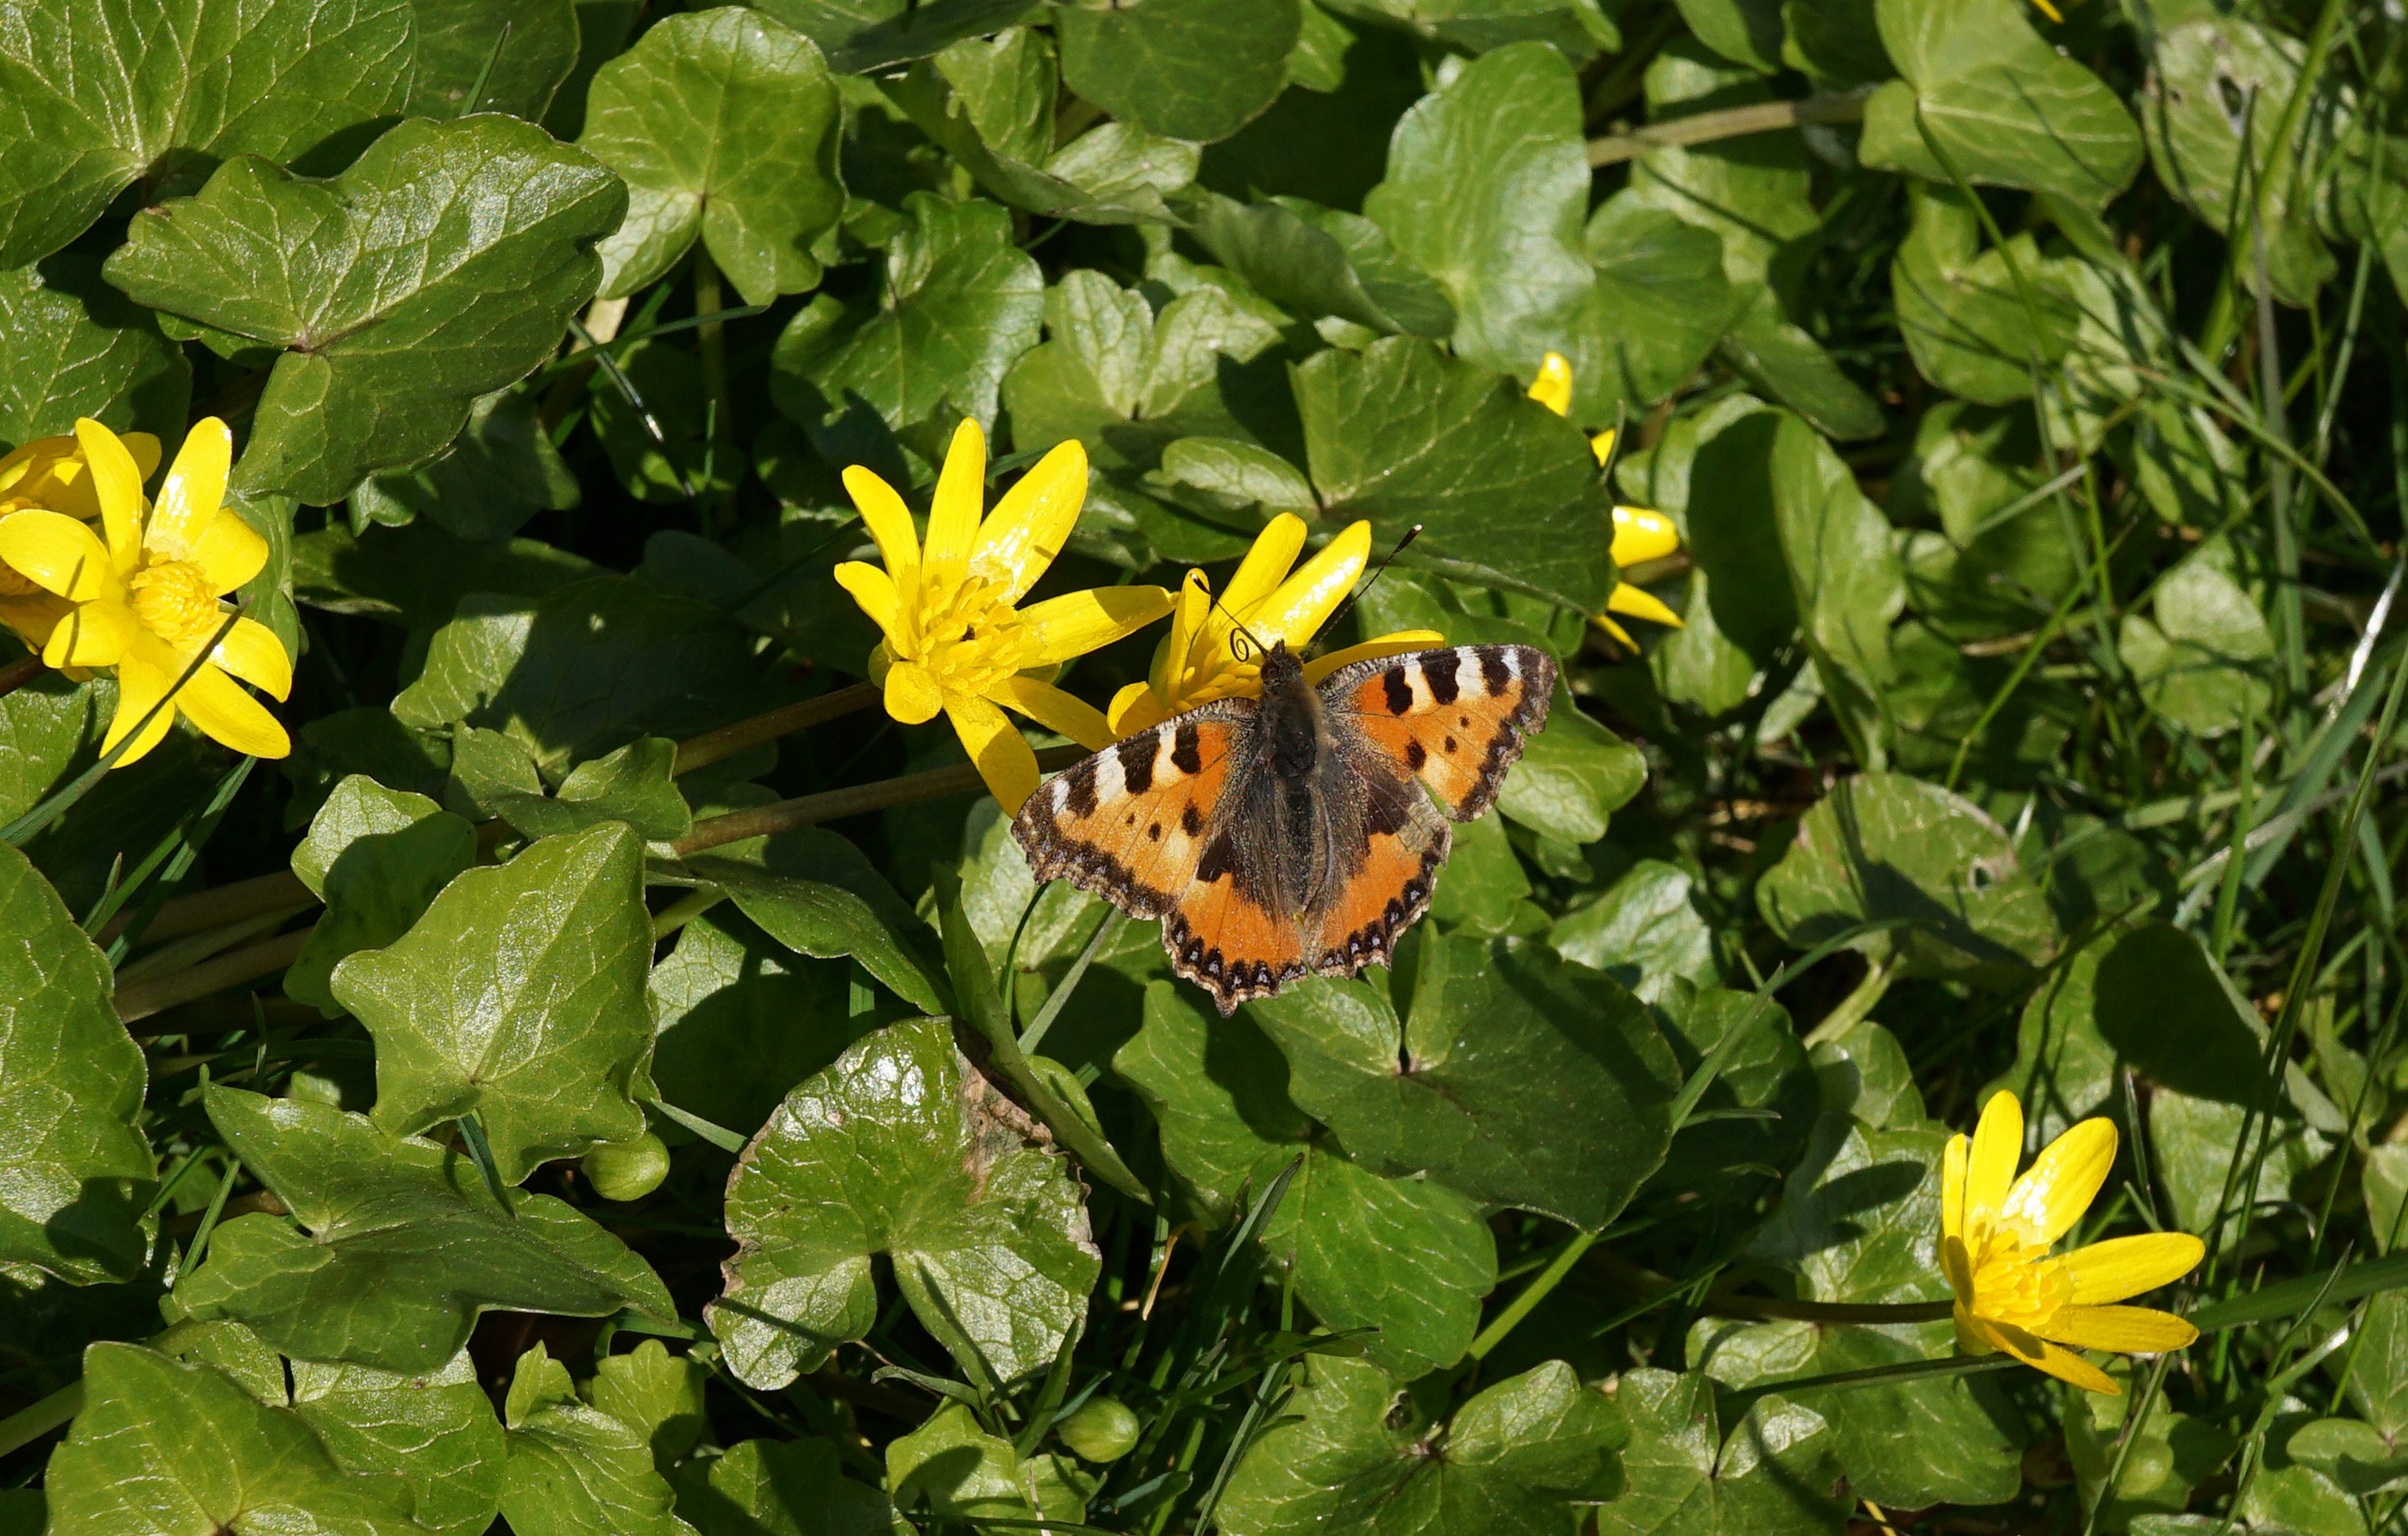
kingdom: Animalia
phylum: Arthropoda
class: Insecta
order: Lepidoptera
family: Nymphalidae
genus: Aglais
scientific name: Aglais urticae
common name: Nældens takvinge
